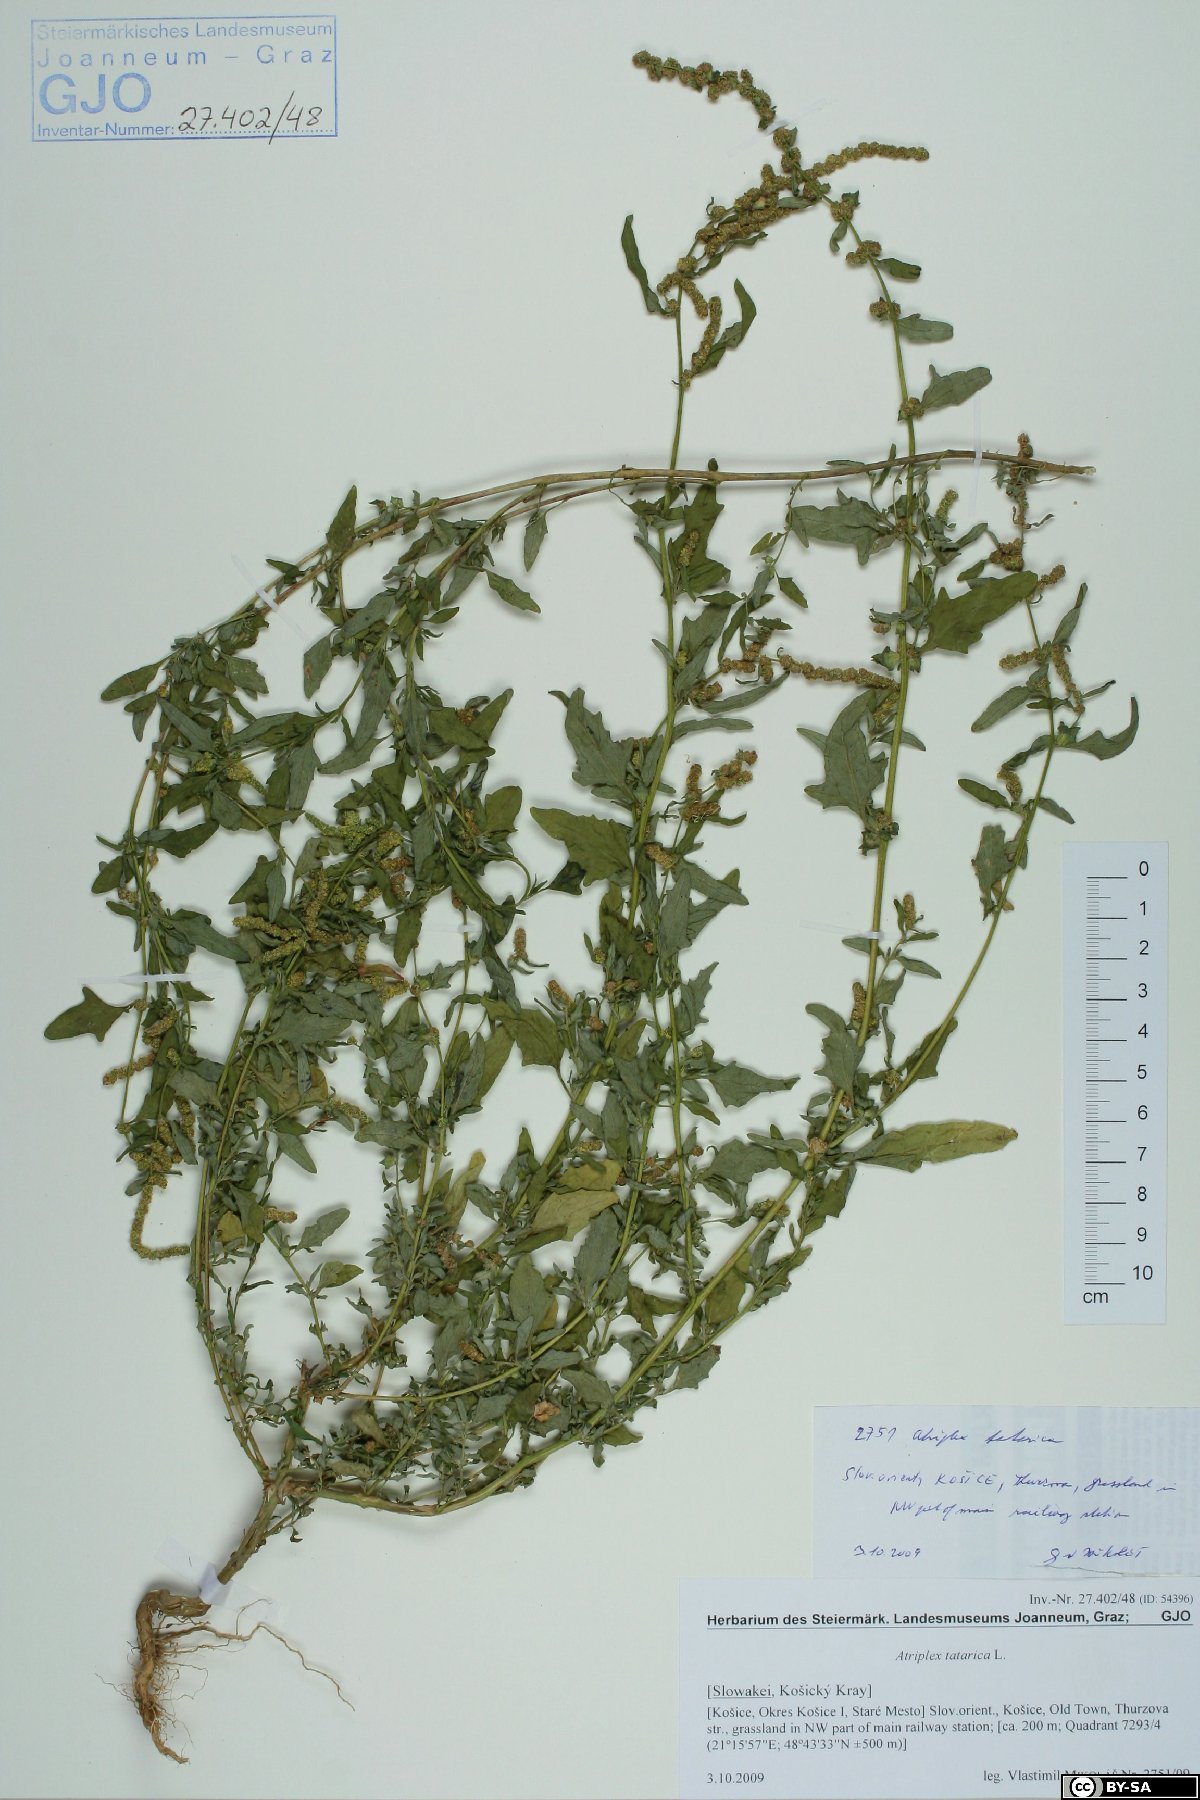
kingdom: Plantae
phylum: Tracheophyta
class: Magnoliopsida
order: Caryophyllales
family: Amaranthaceae
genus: Atriplex
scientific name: Atriplex tatarica
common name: Tatarian orache
